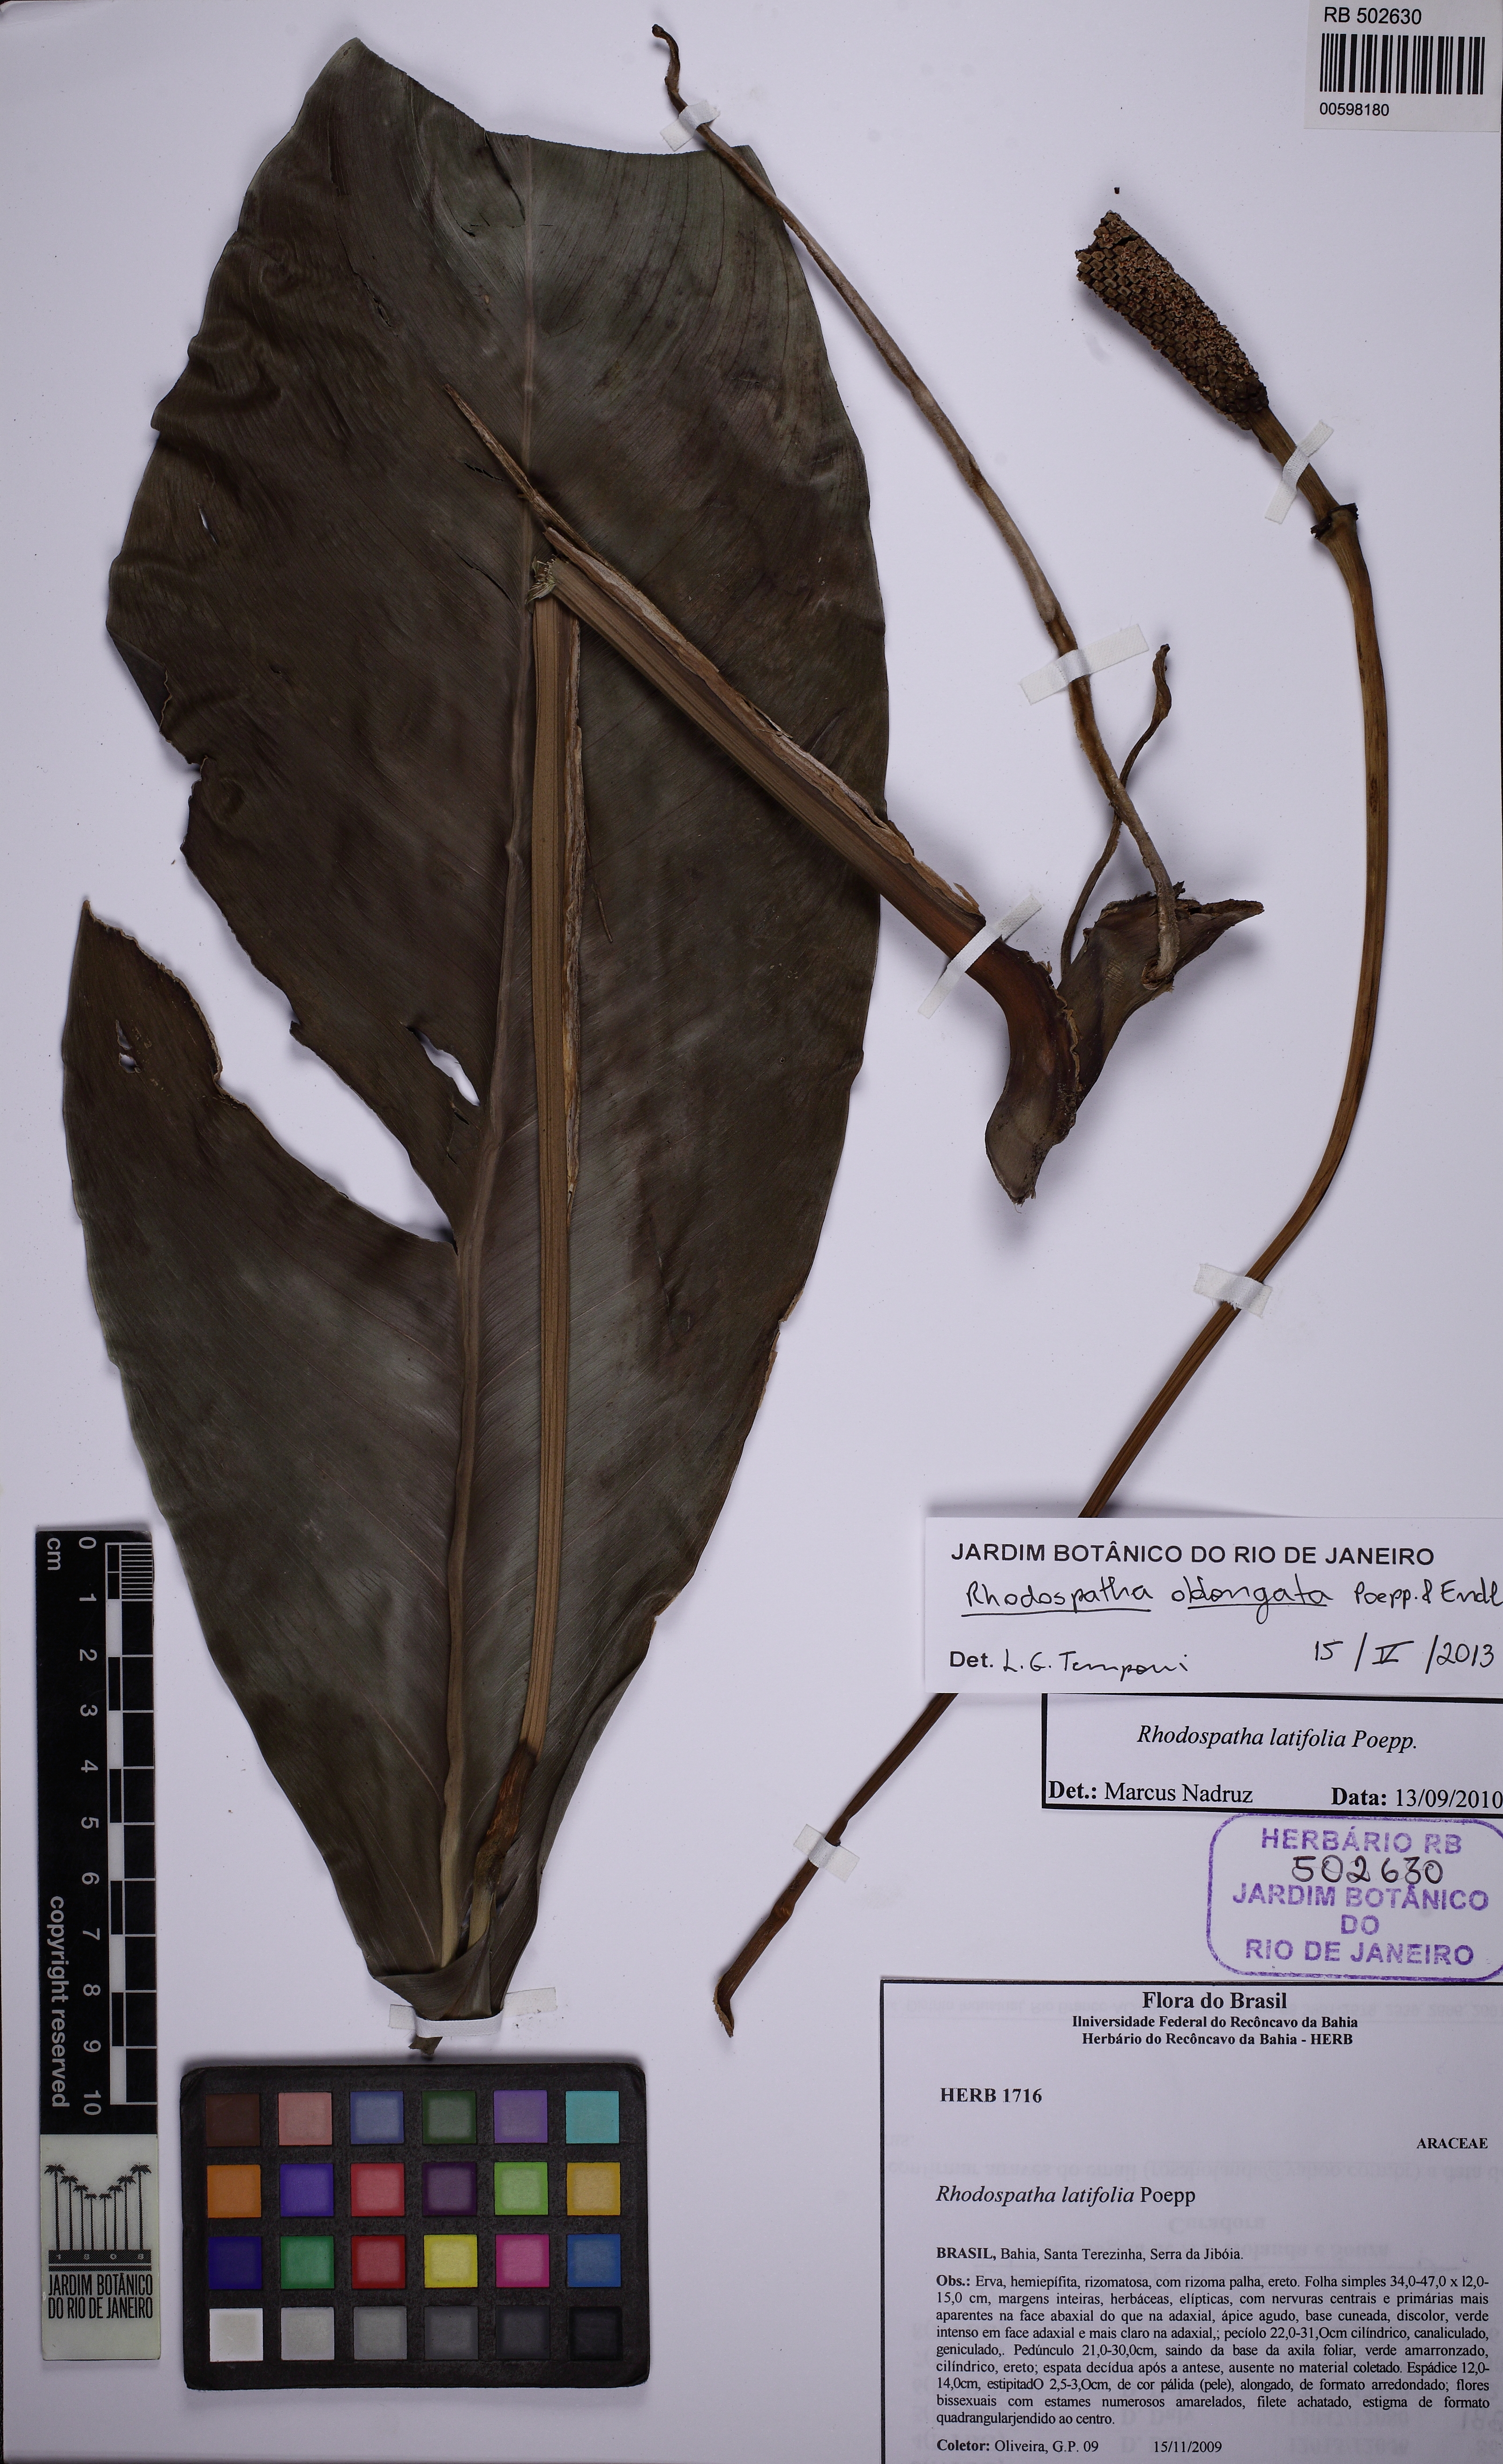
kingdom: Plantae
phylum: Tracheophyta
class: Liliopsida
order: Alismatales
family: Araceae
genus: Rhodospatha
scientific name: Rhodospatha oblongata
